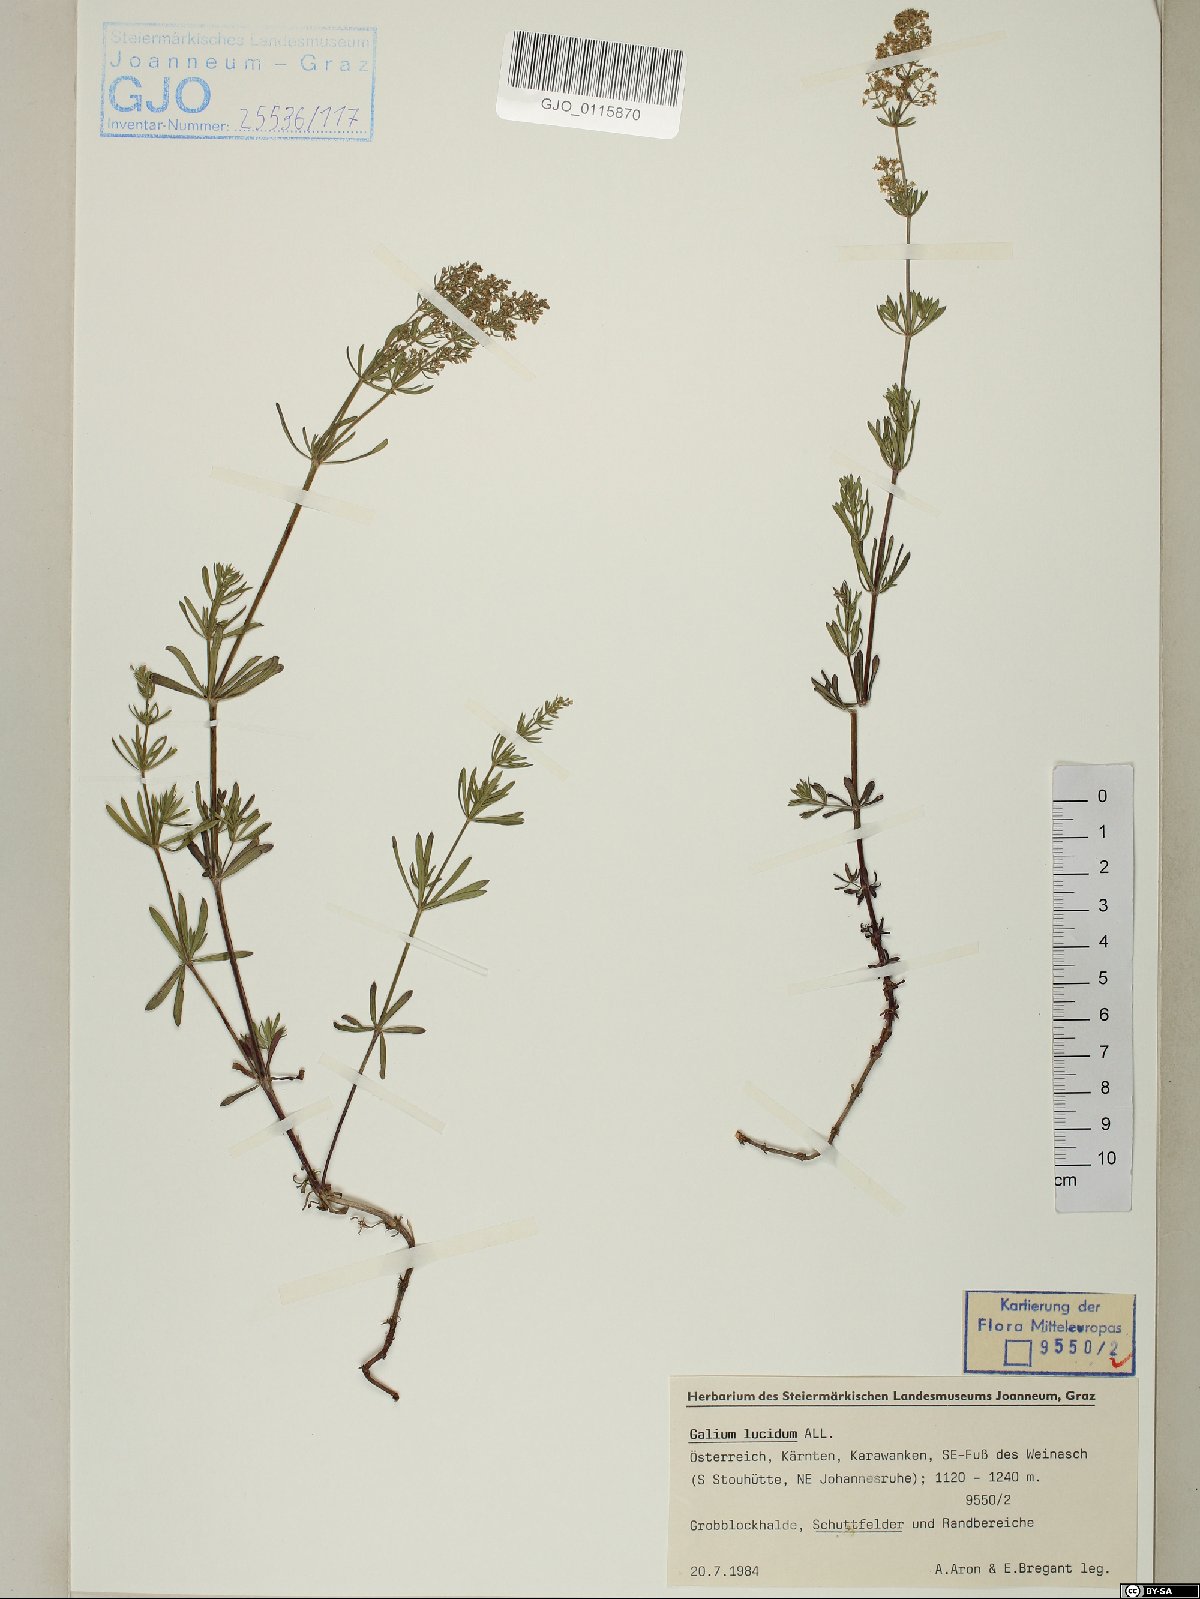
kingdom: Plantae
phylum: Tracheophyta
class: Magnoliopsida
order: Gentianales
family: Rubiaceae
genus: Galium
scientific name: Galium lucidum
